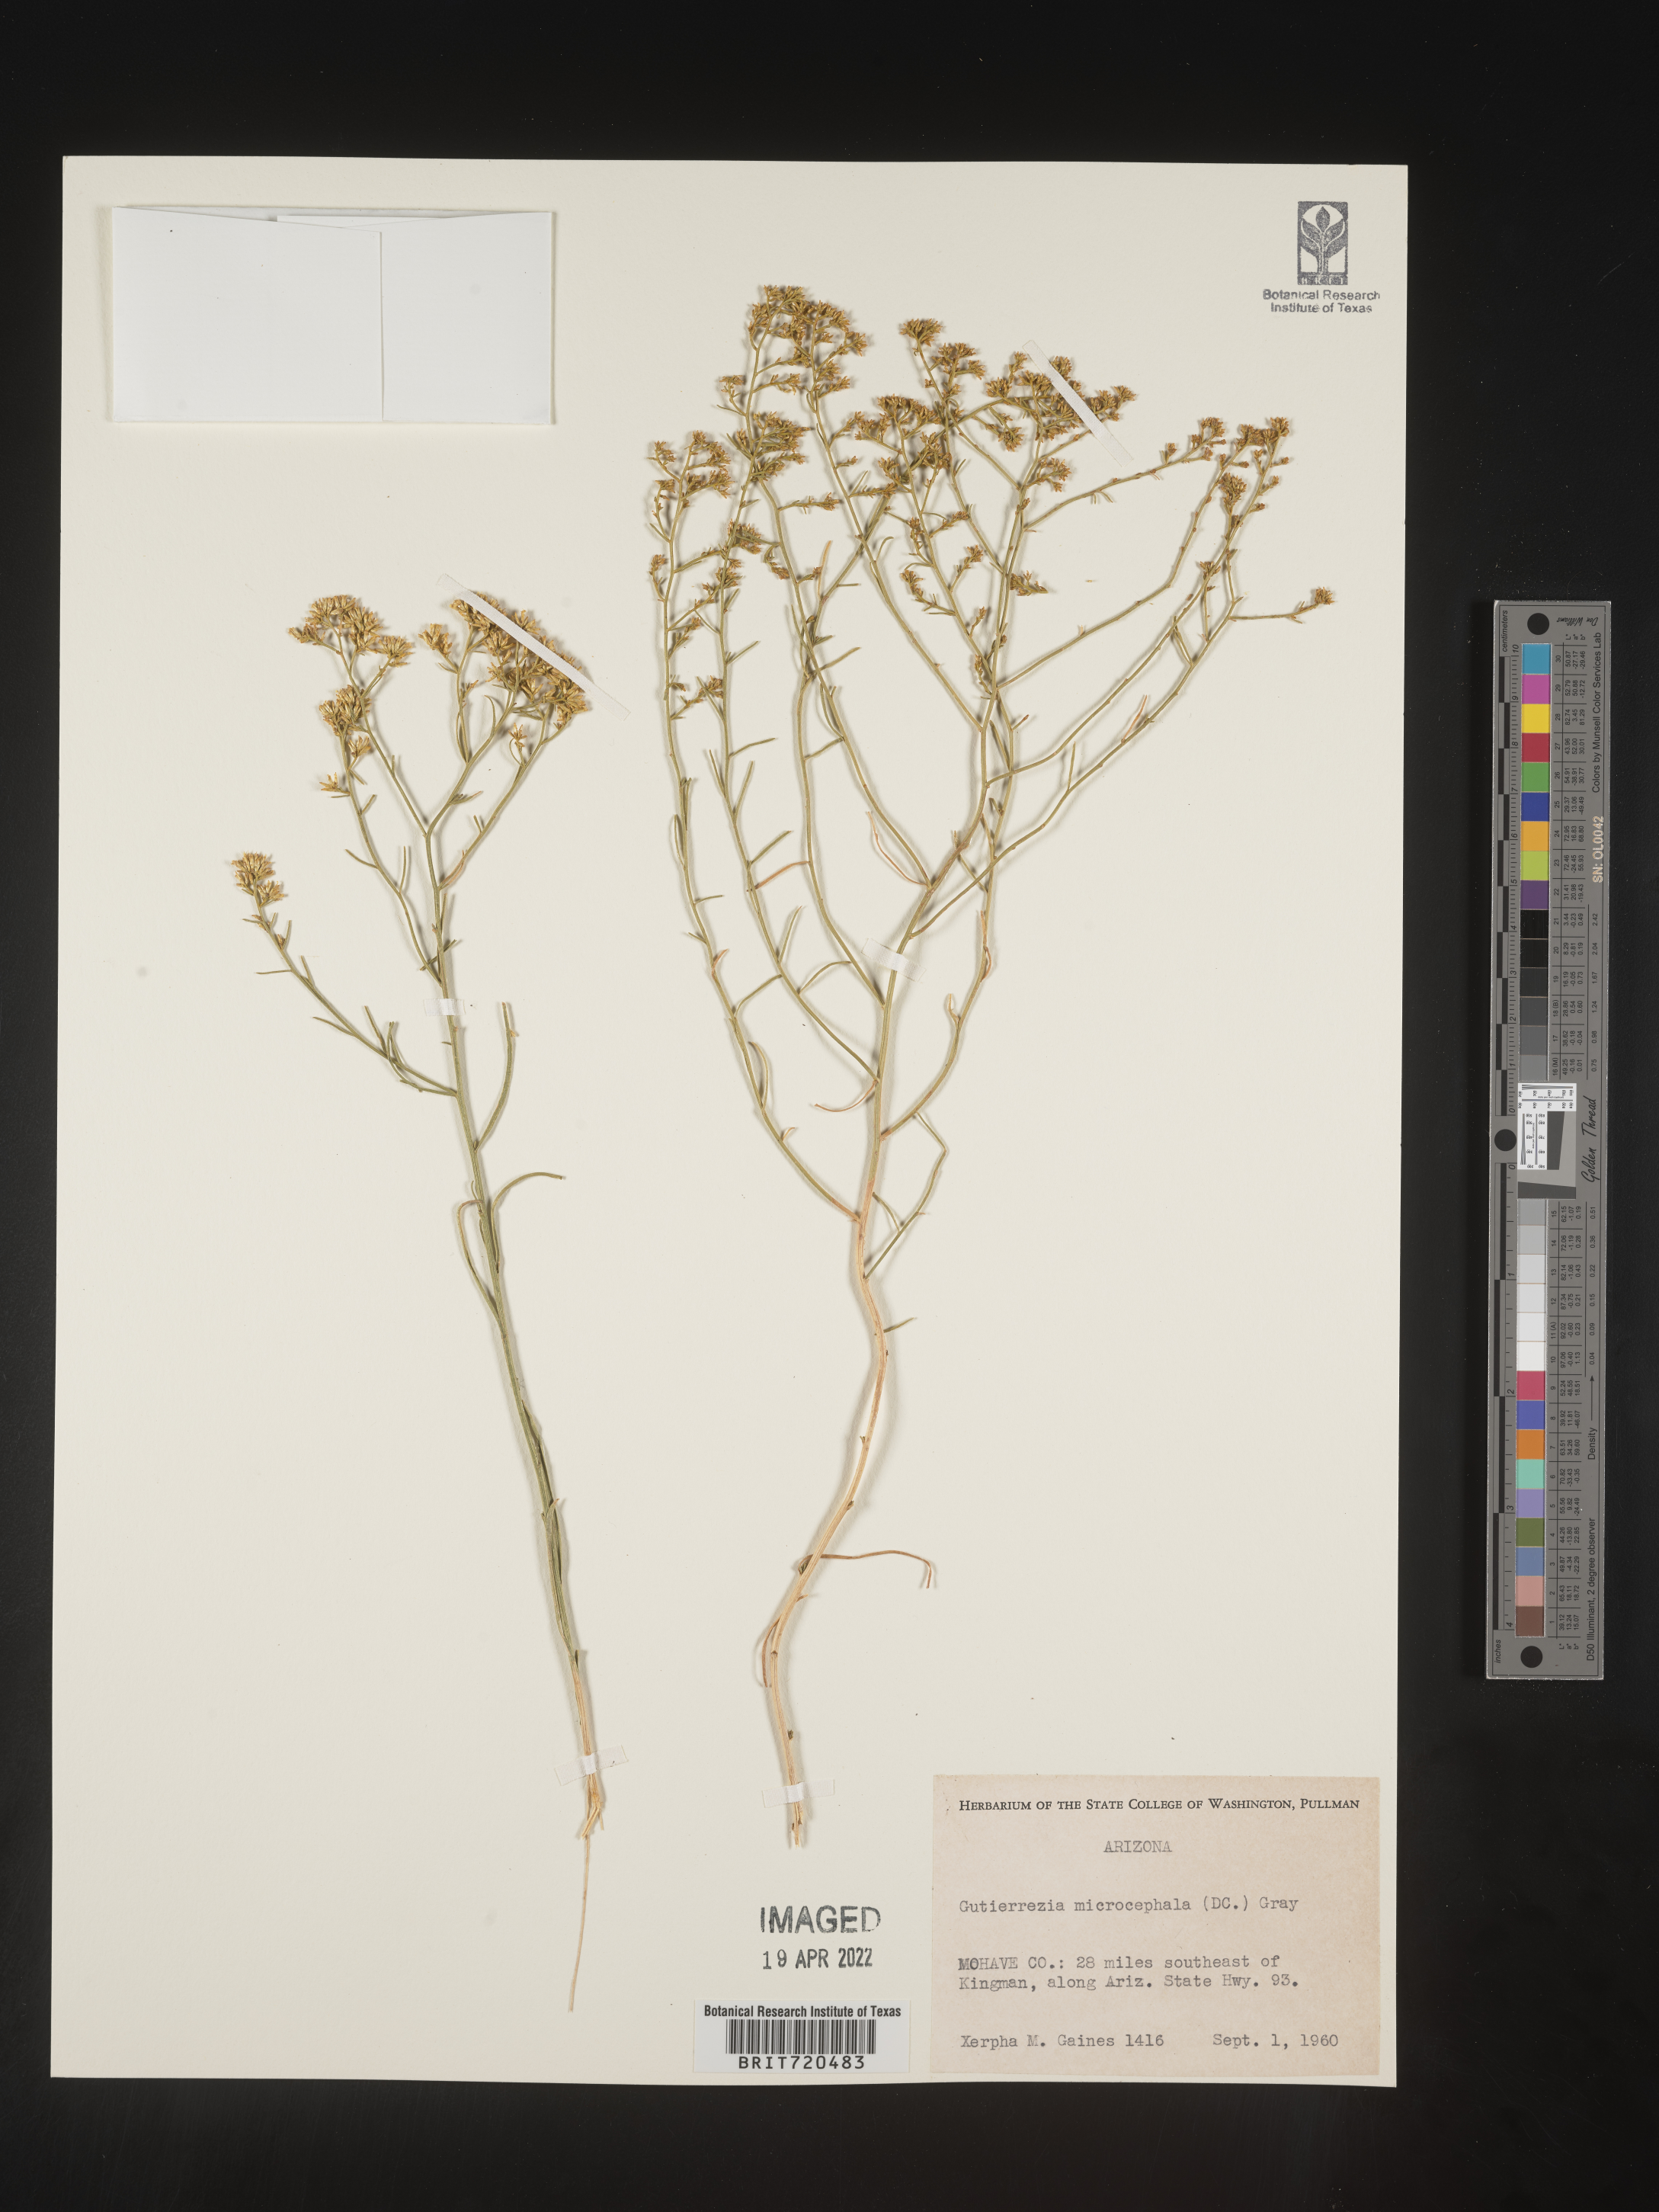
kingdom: Plantae
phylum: Tracheophyta
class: Magnoliopsida
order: Asterales
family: Asteraceae
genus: Gutierrezia
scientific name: Gutierrezia microcephala
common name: Thread snakeweed
